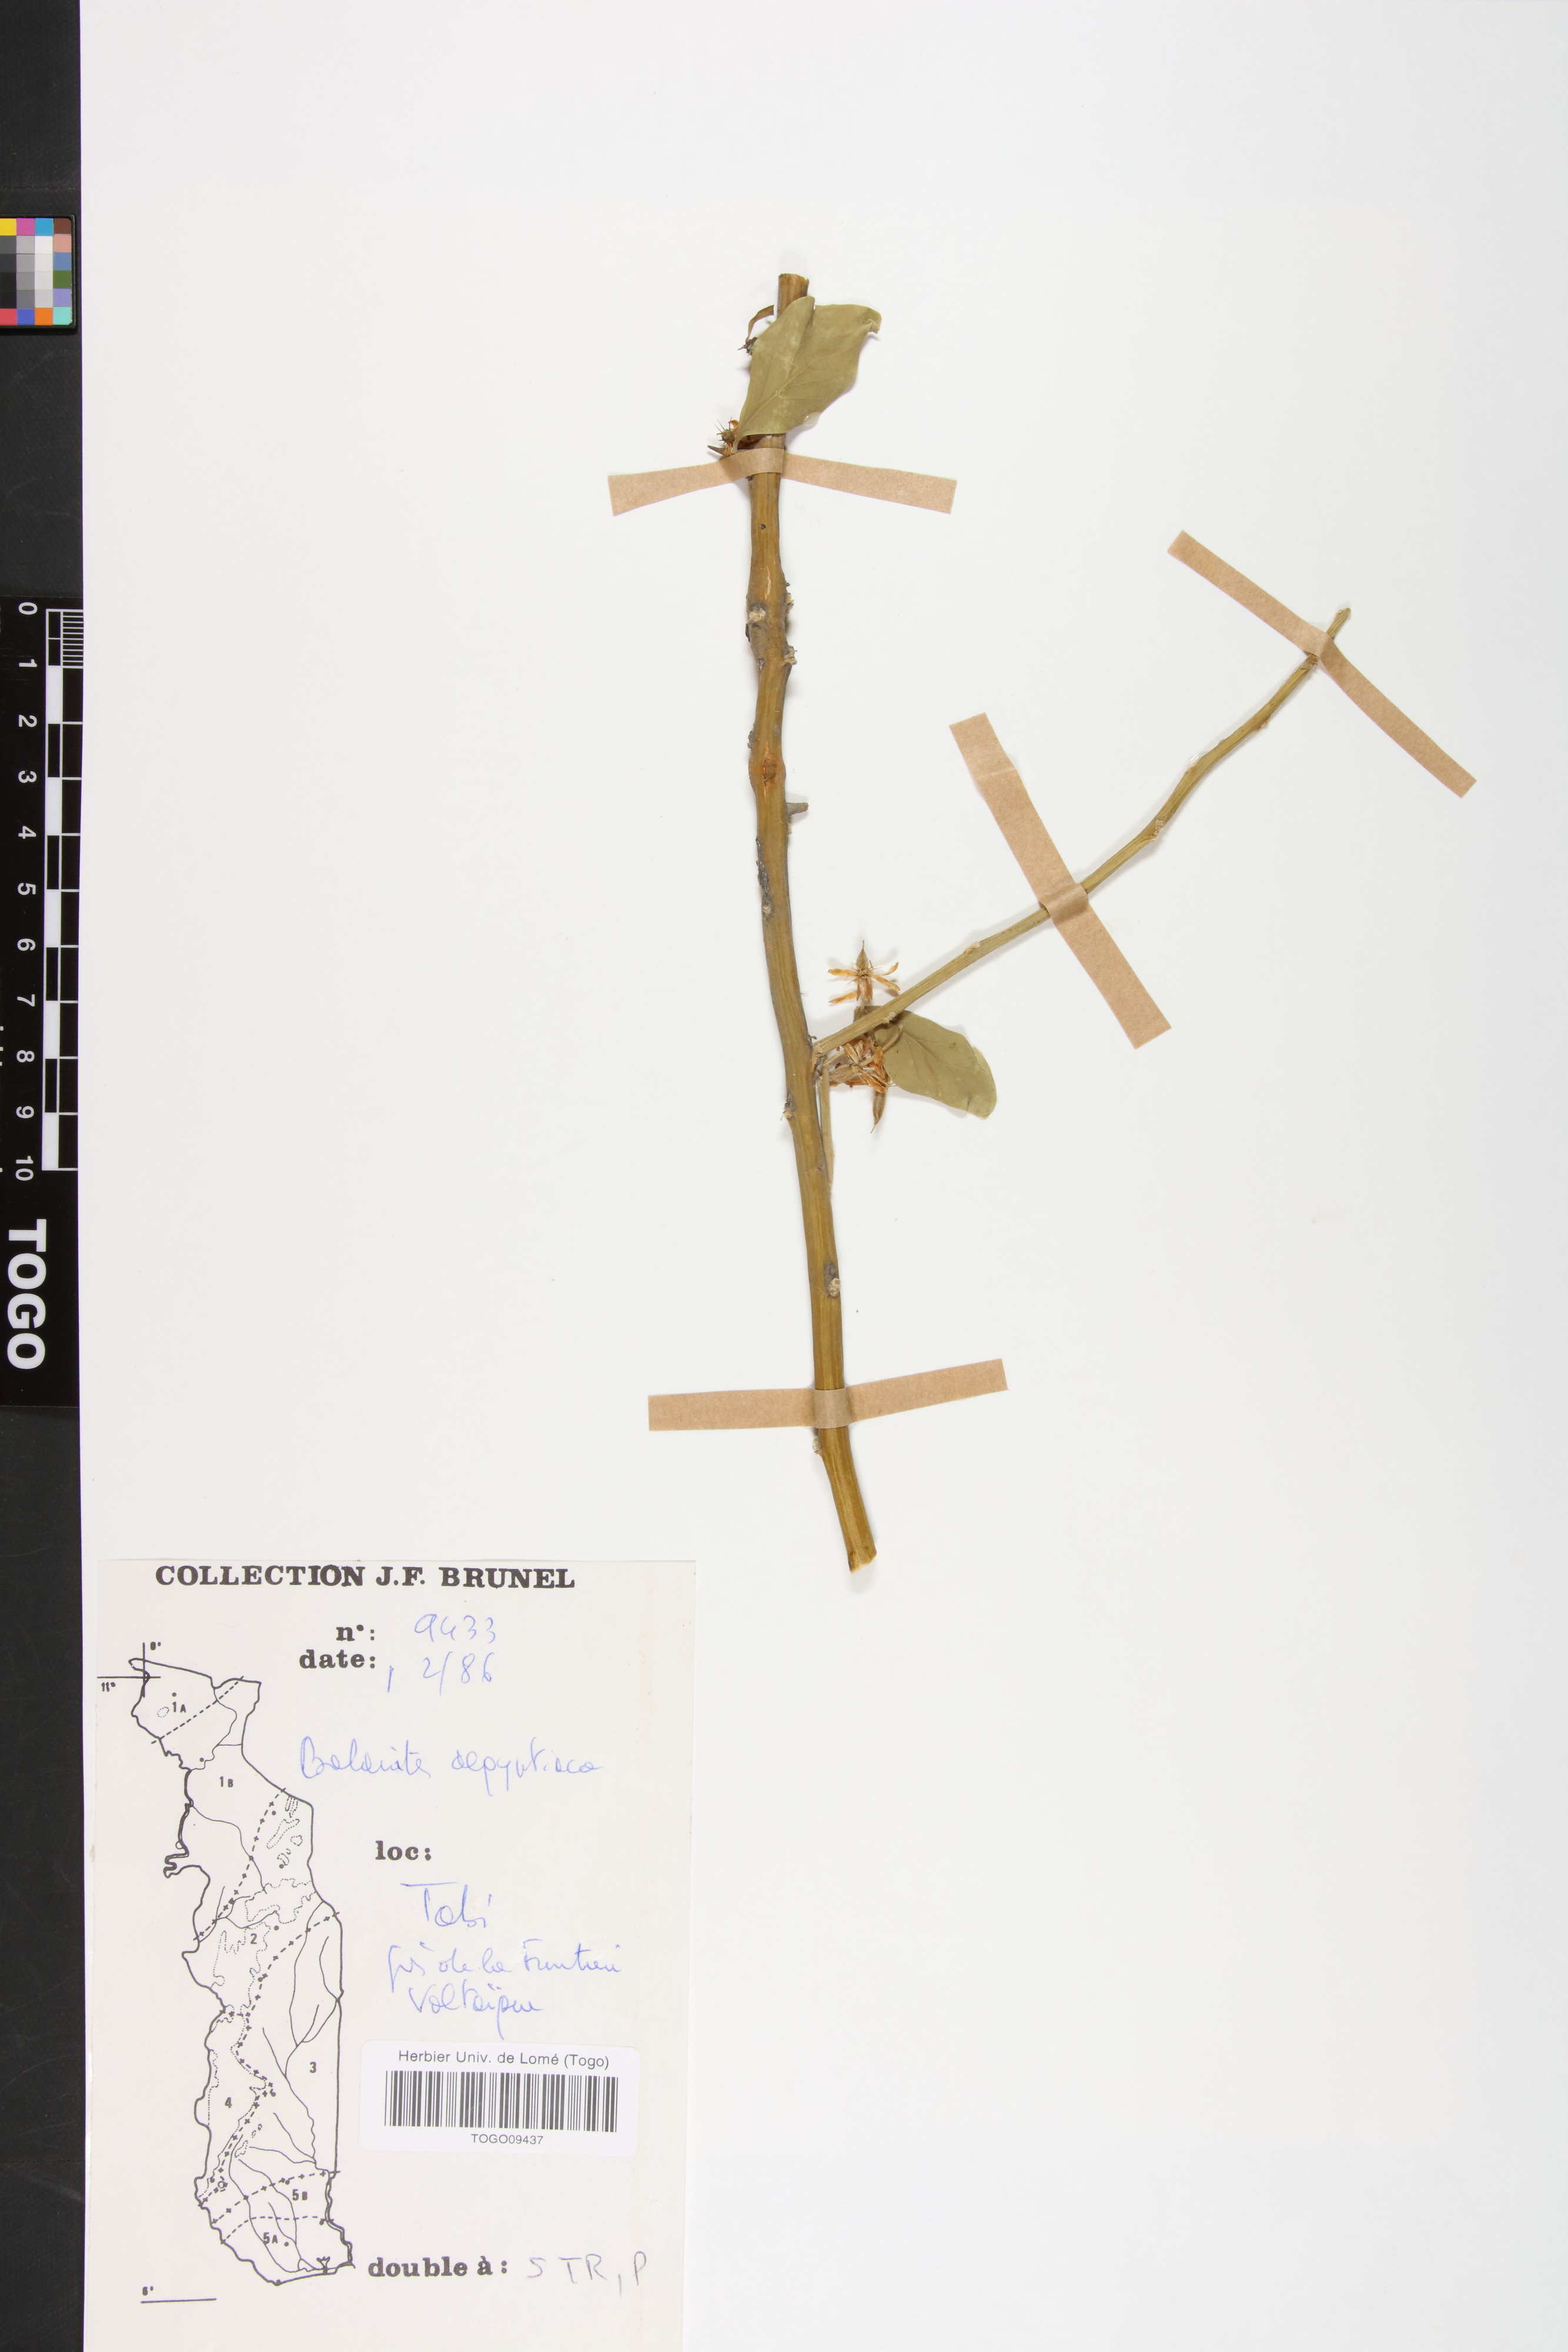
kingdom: Plantae
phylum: Tracheophyta
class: Magnoliopsida
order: Zygophyllales
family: Zygophyllaceae
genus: Balanites
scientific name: Balanites aegyptiaca
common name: Balanites
